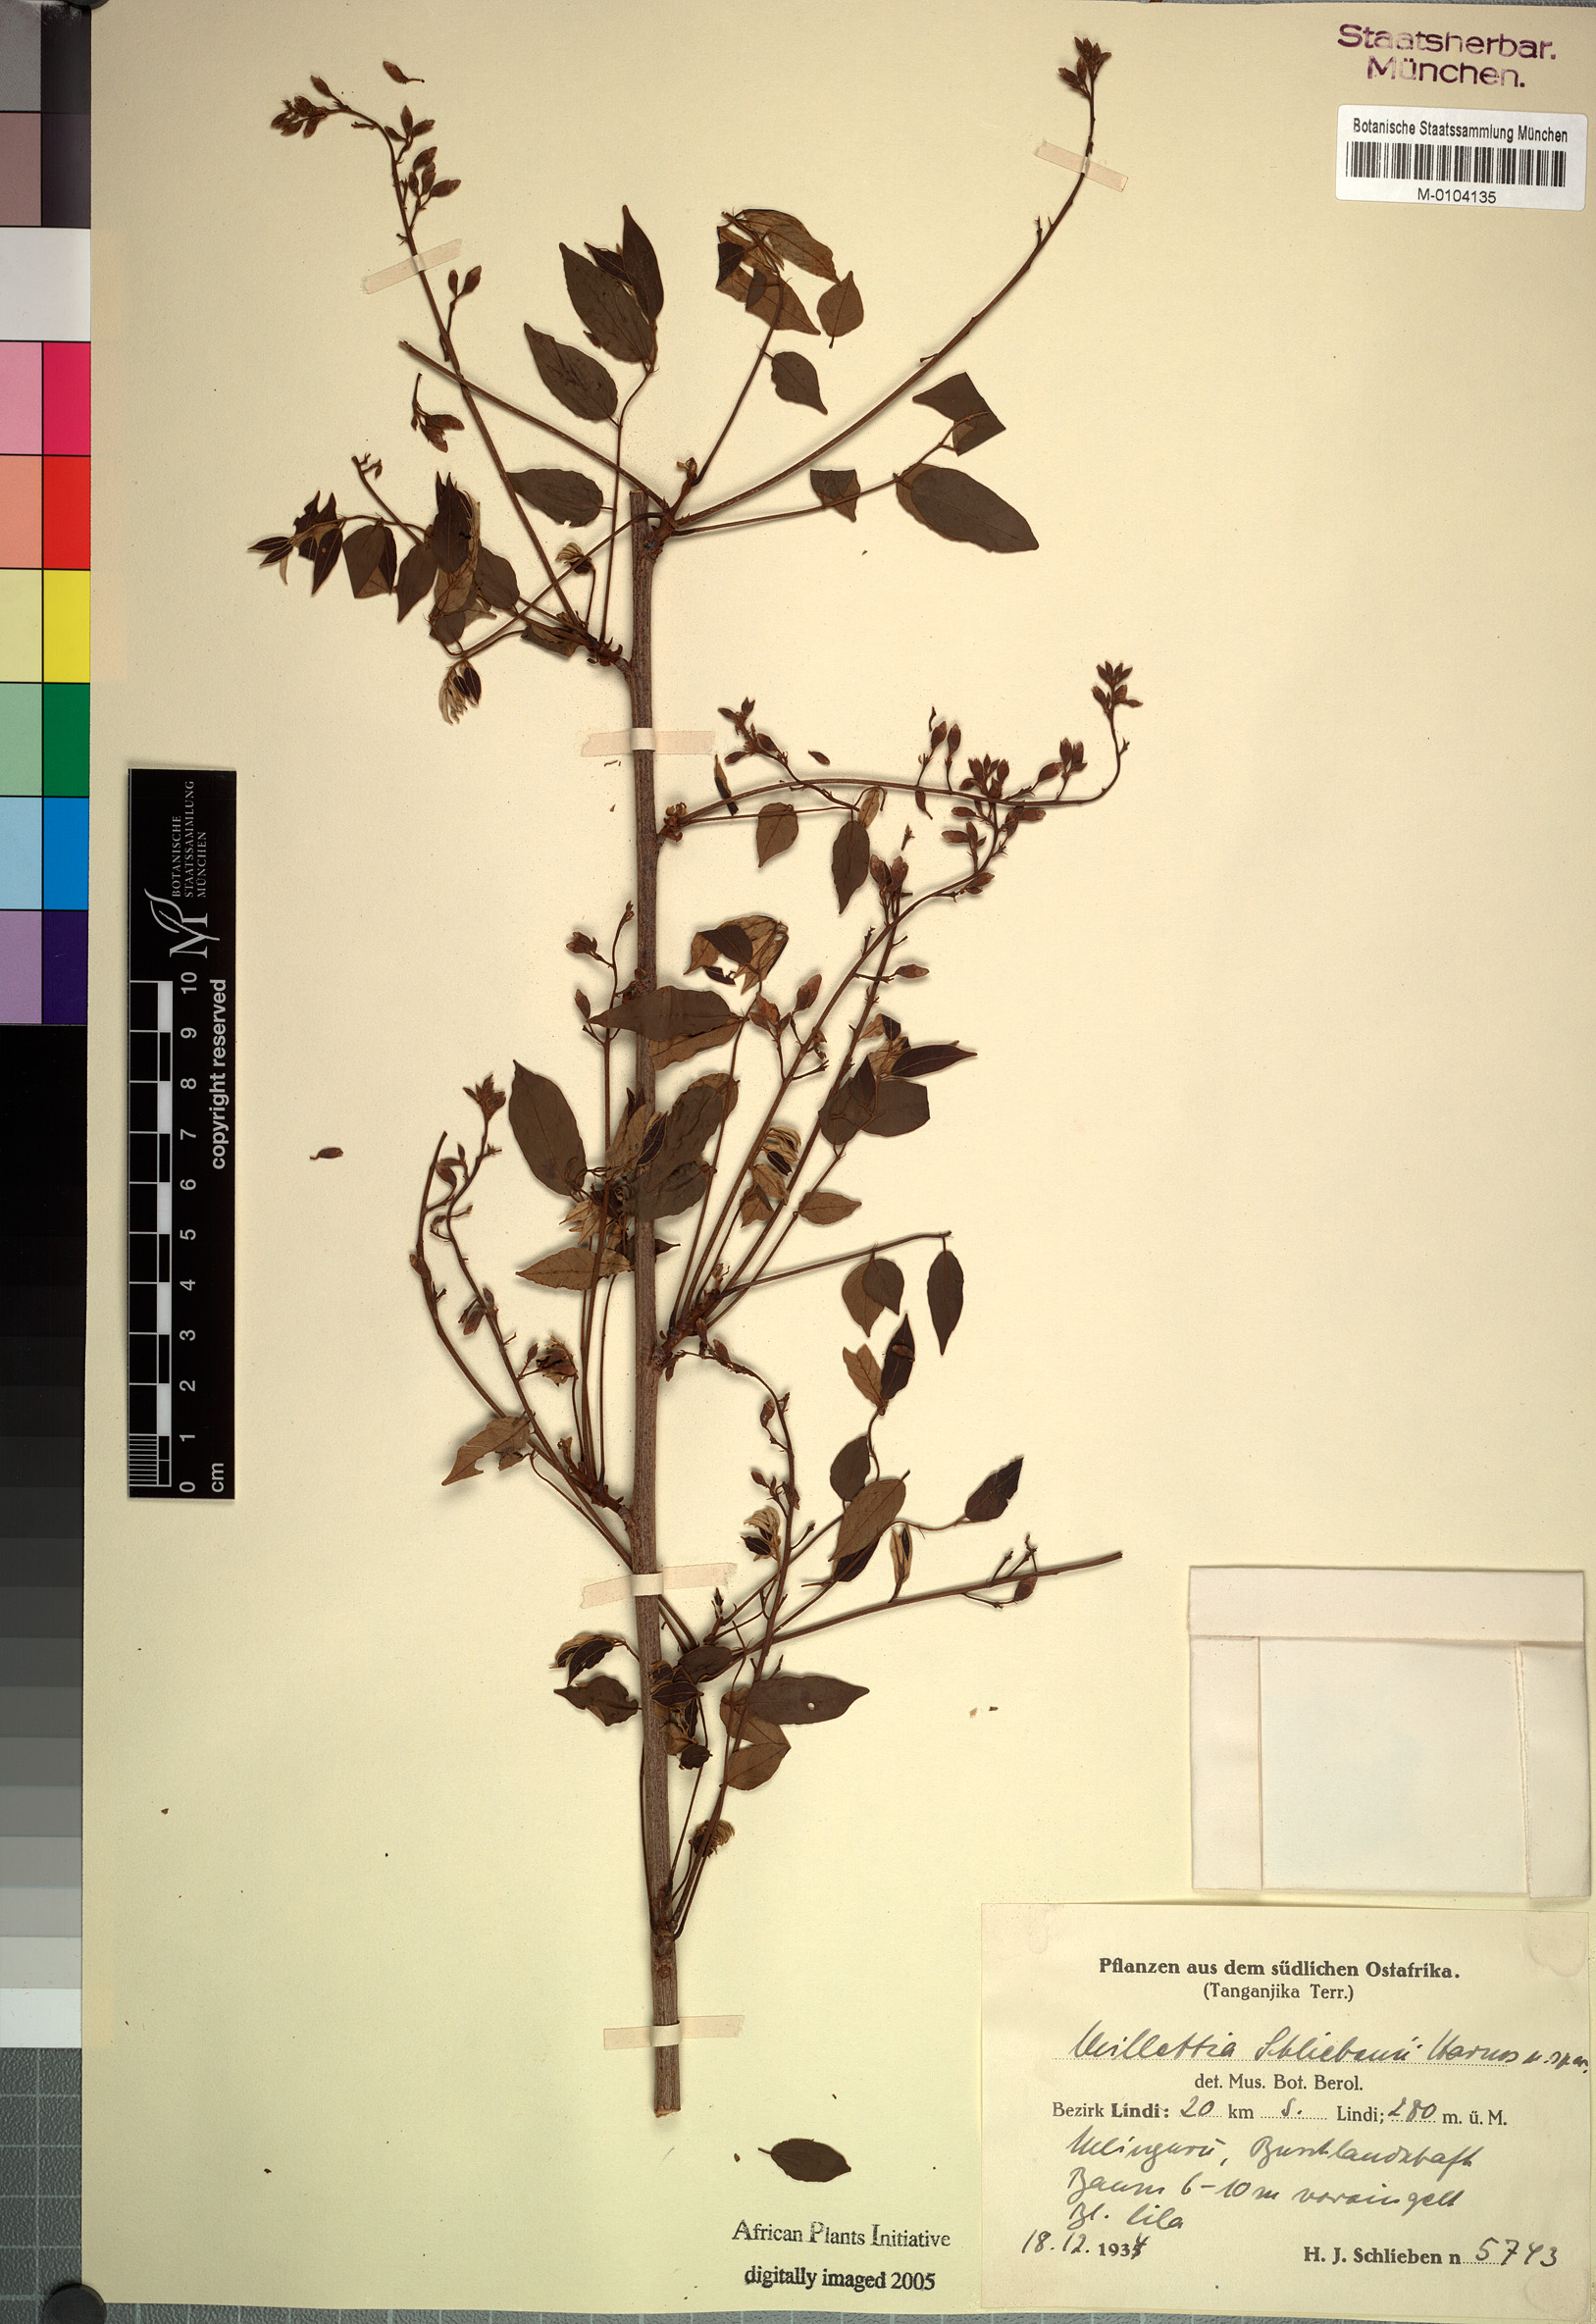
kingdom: Plantae
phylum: Tracheophyta
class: Magnoliopsida
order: Fabales
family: Fabaceae
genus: Millettia
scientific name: Millettia schliebenii
